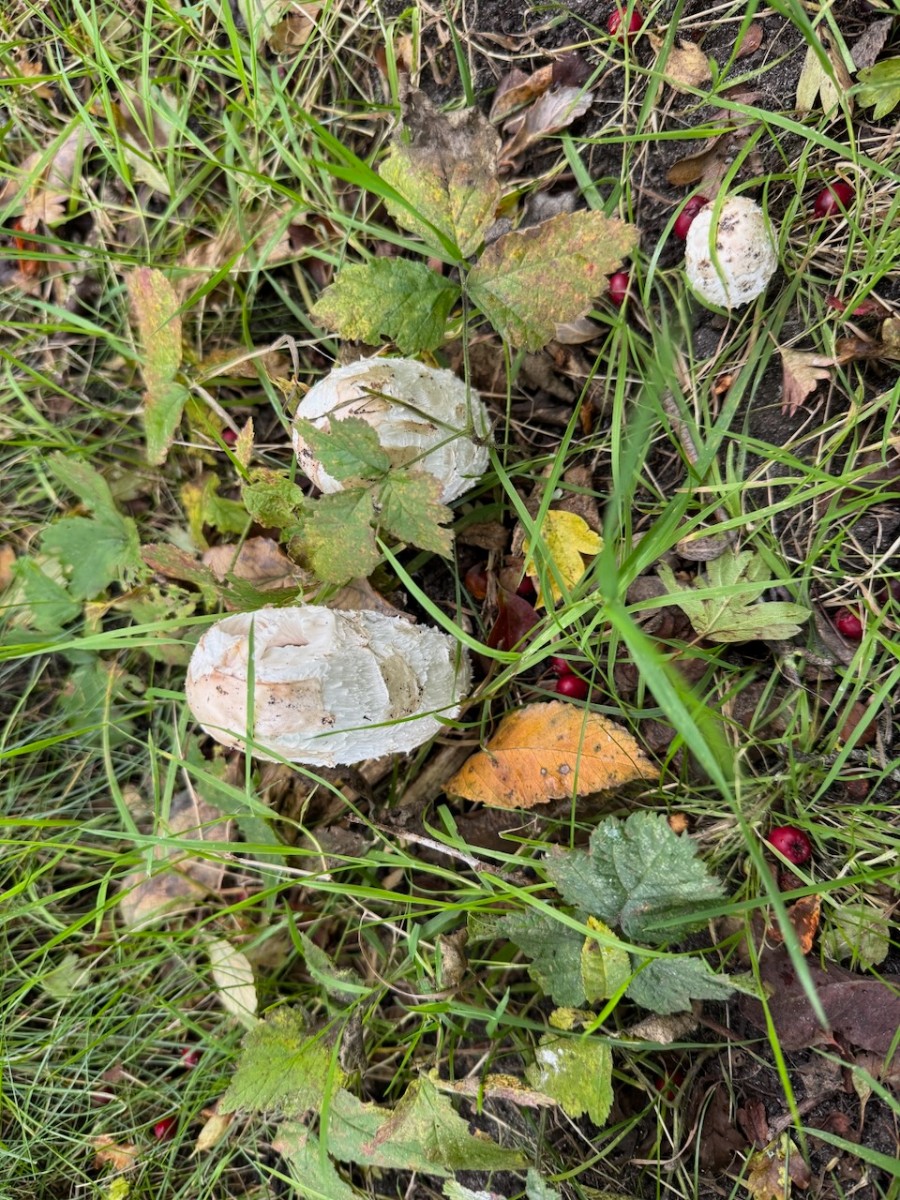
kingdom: Fungi
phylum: Basidiomycota
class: Agaricomycetes
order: Agaricales
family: Agaricaceae
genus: Coprinus
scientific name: Coprinus comatus
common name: stor parykhat
